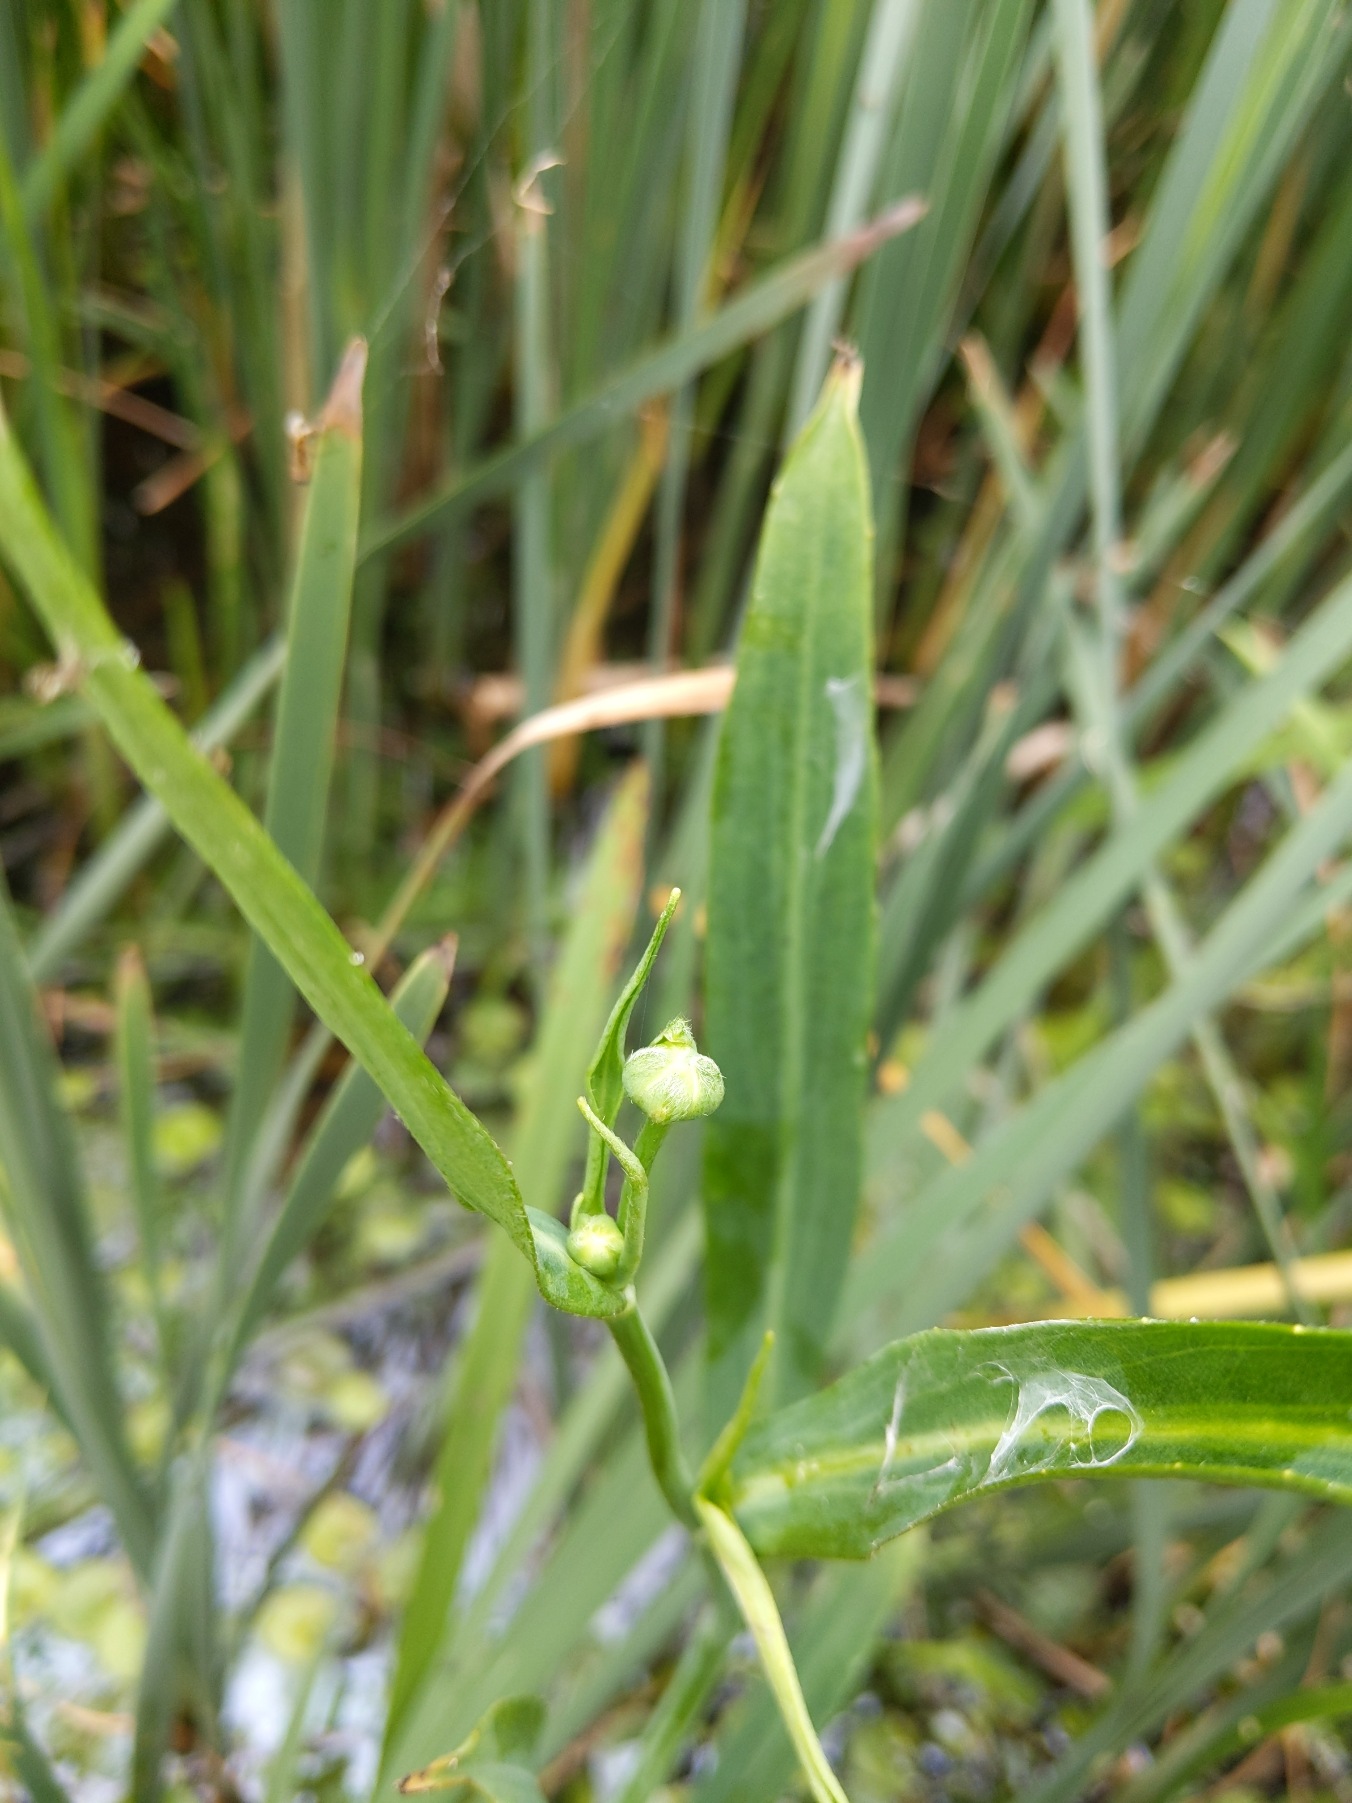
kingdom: Plantae
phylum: Tracheophyta
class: Magnoliopsida
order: Ranunculales
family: Ranunculaceae
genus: Ranunculus
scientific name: Ranunculus lingua
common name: Langbladet ranunkel
